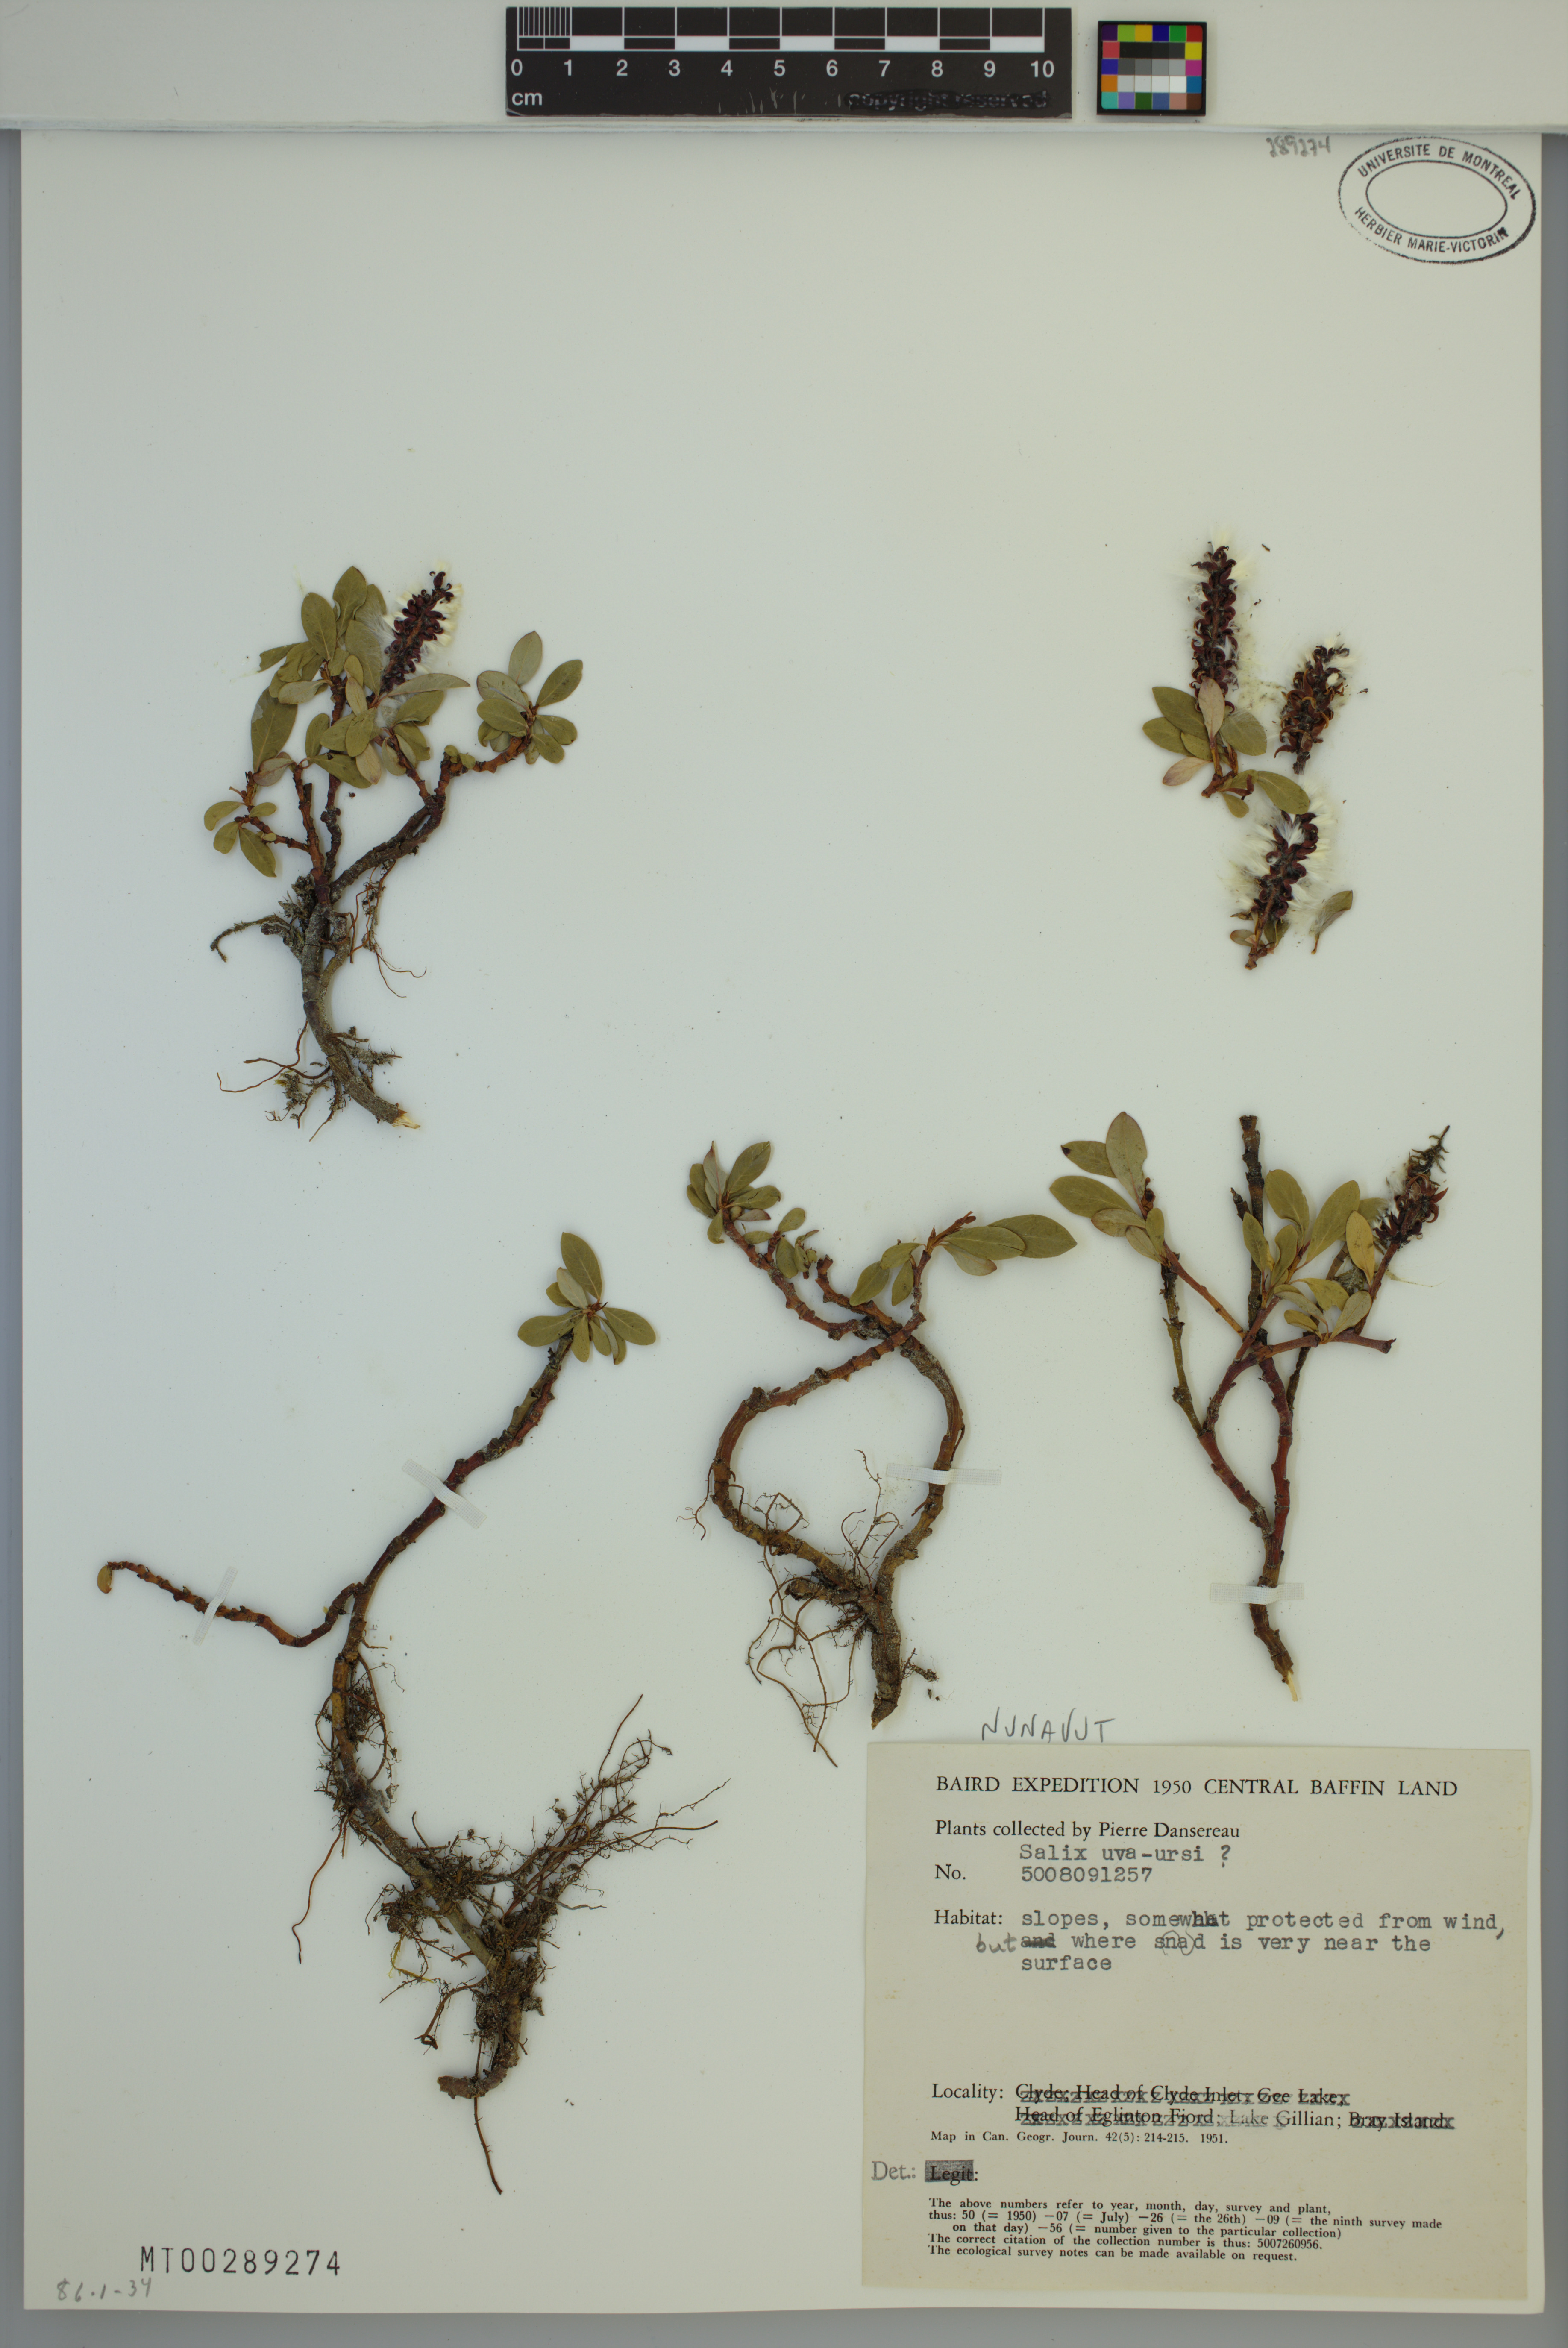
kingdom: Plantae
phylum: Tracheophyta
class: Magnoliopsida
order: Malpighiales
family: Salicaceae
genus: Salix
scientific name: Salix uva-ursi
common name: Bearberry willow
